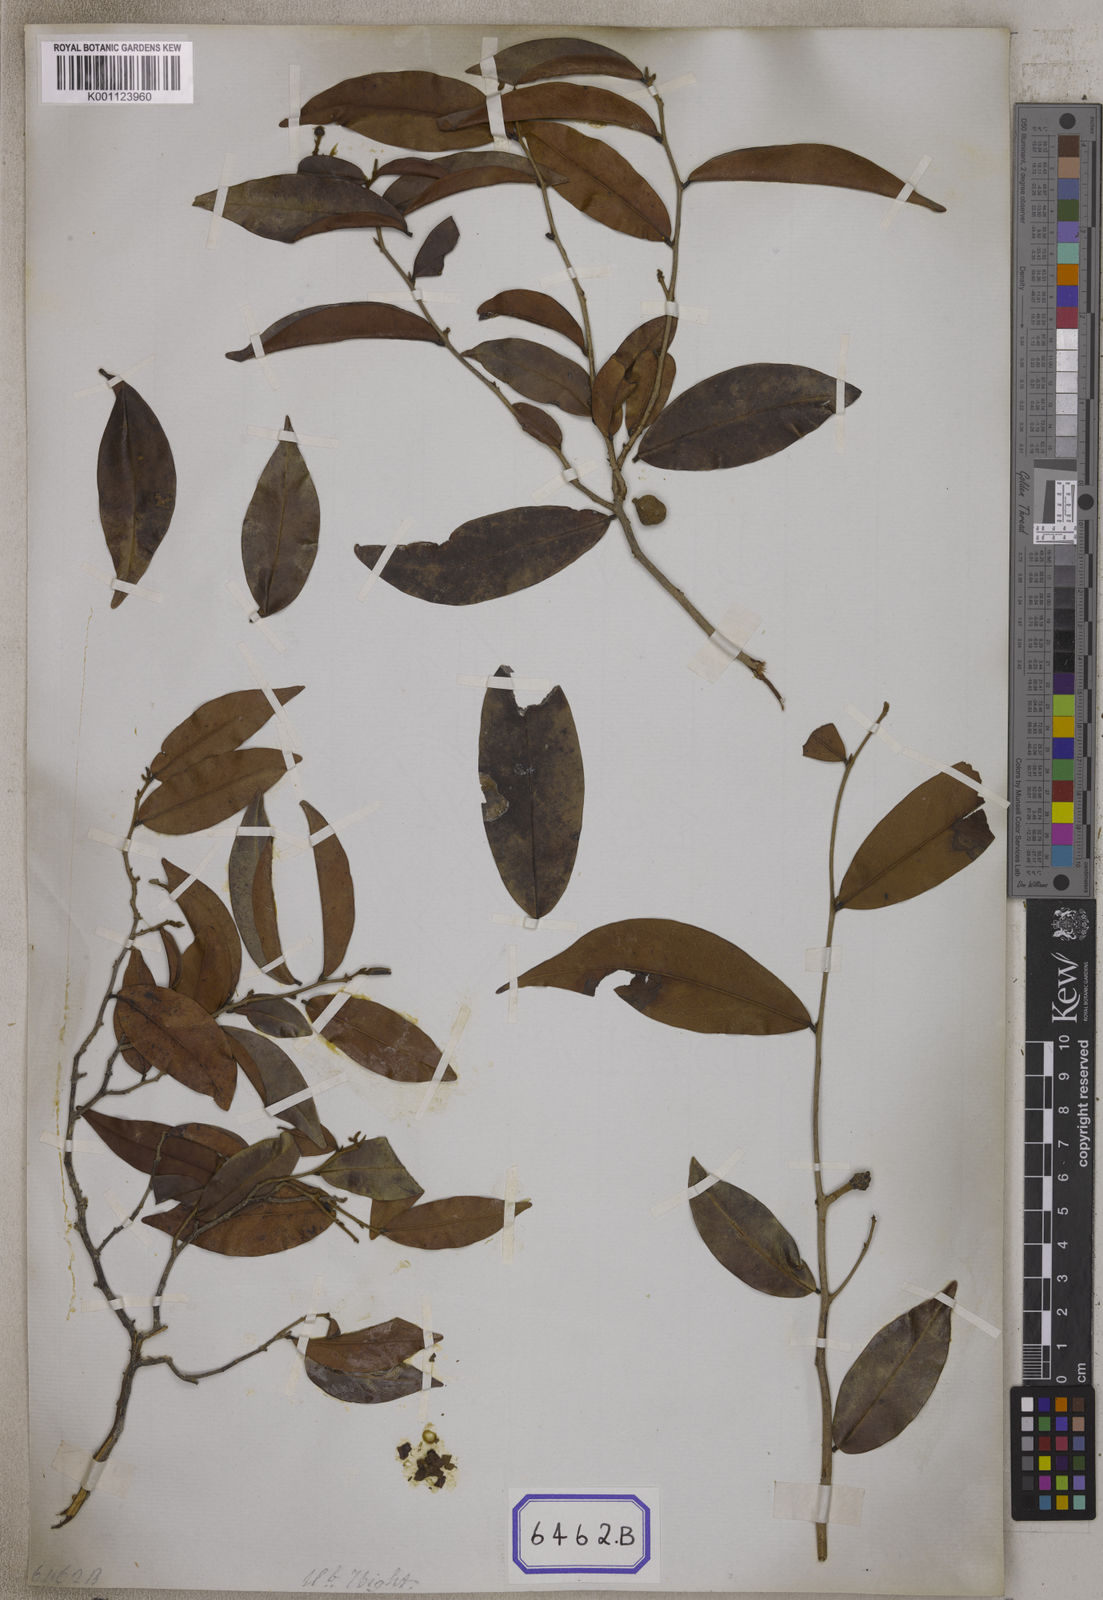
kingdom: Plantae
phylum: Tracheophyta
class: Magnoliopsida
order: Magnoliales
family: Annonaceae
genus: Uvaria
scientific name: Uvaria
